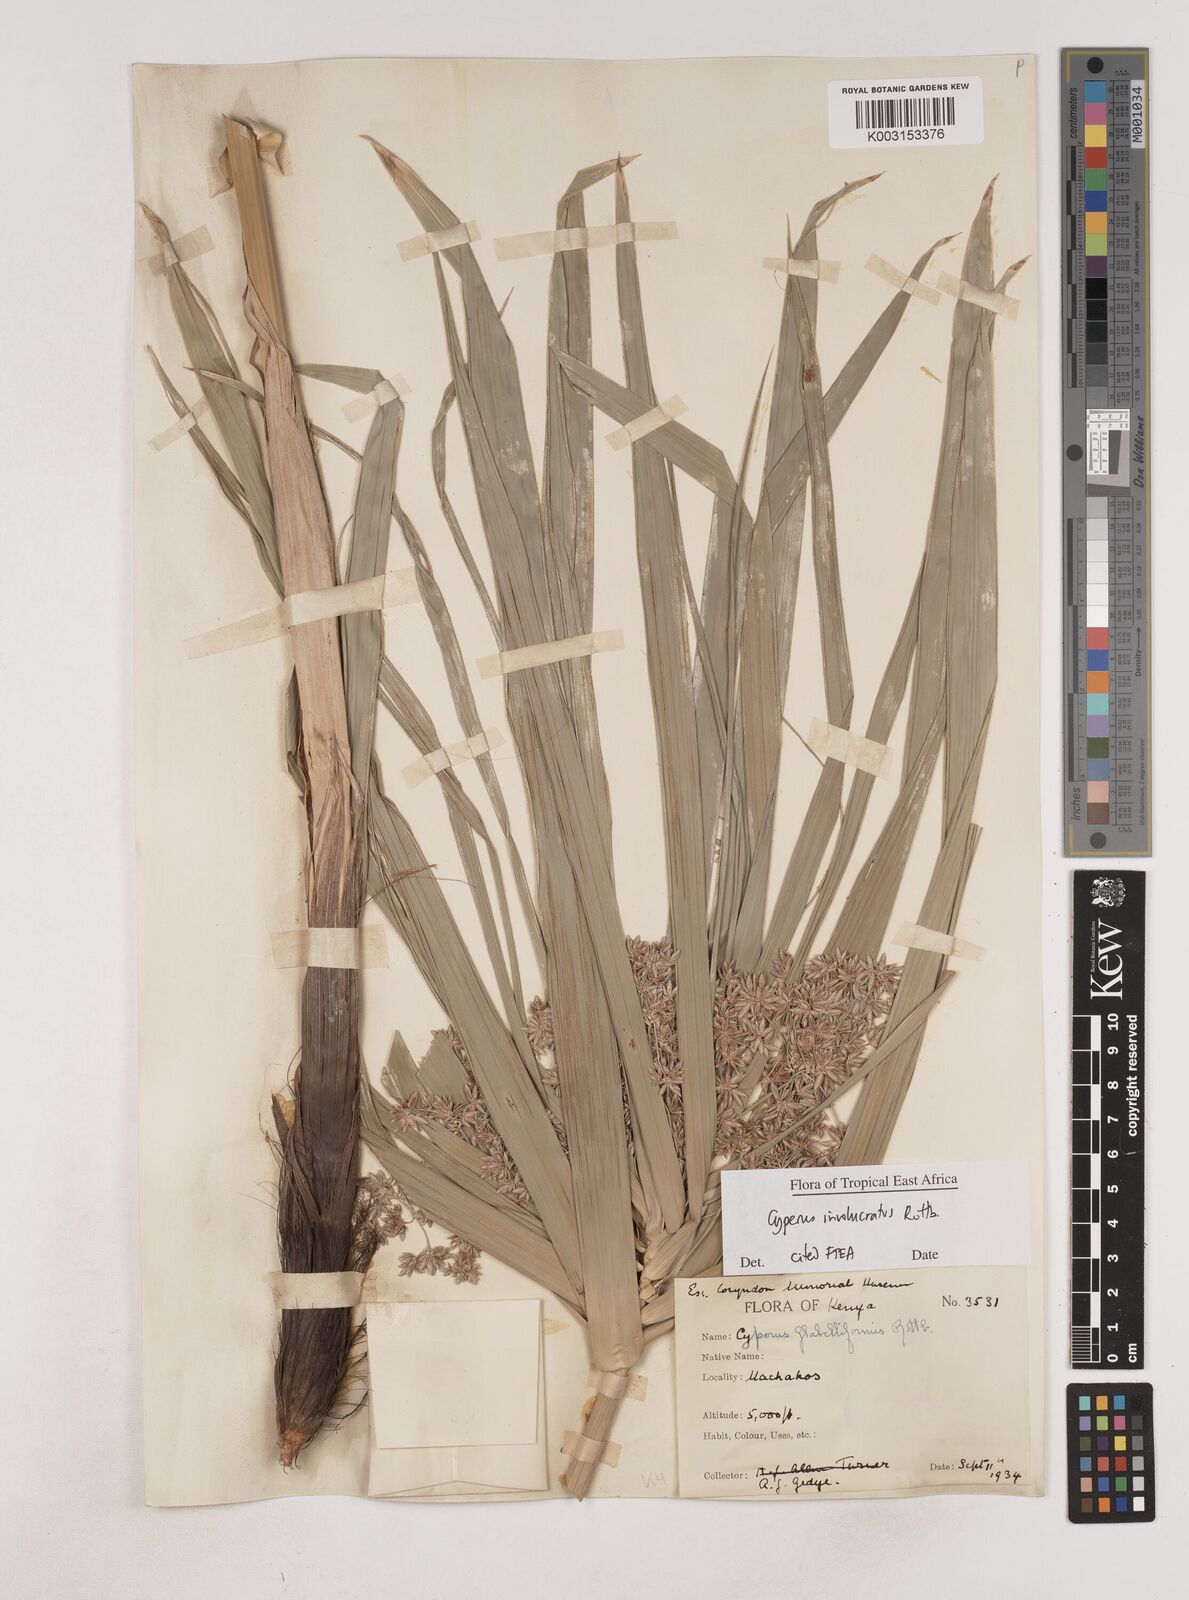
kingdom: Plantae
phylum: Tracheophyta
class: Liliopsida
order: Poales
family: Cyperaceae
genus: Cyperus
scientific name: Cyperus alternifolius
